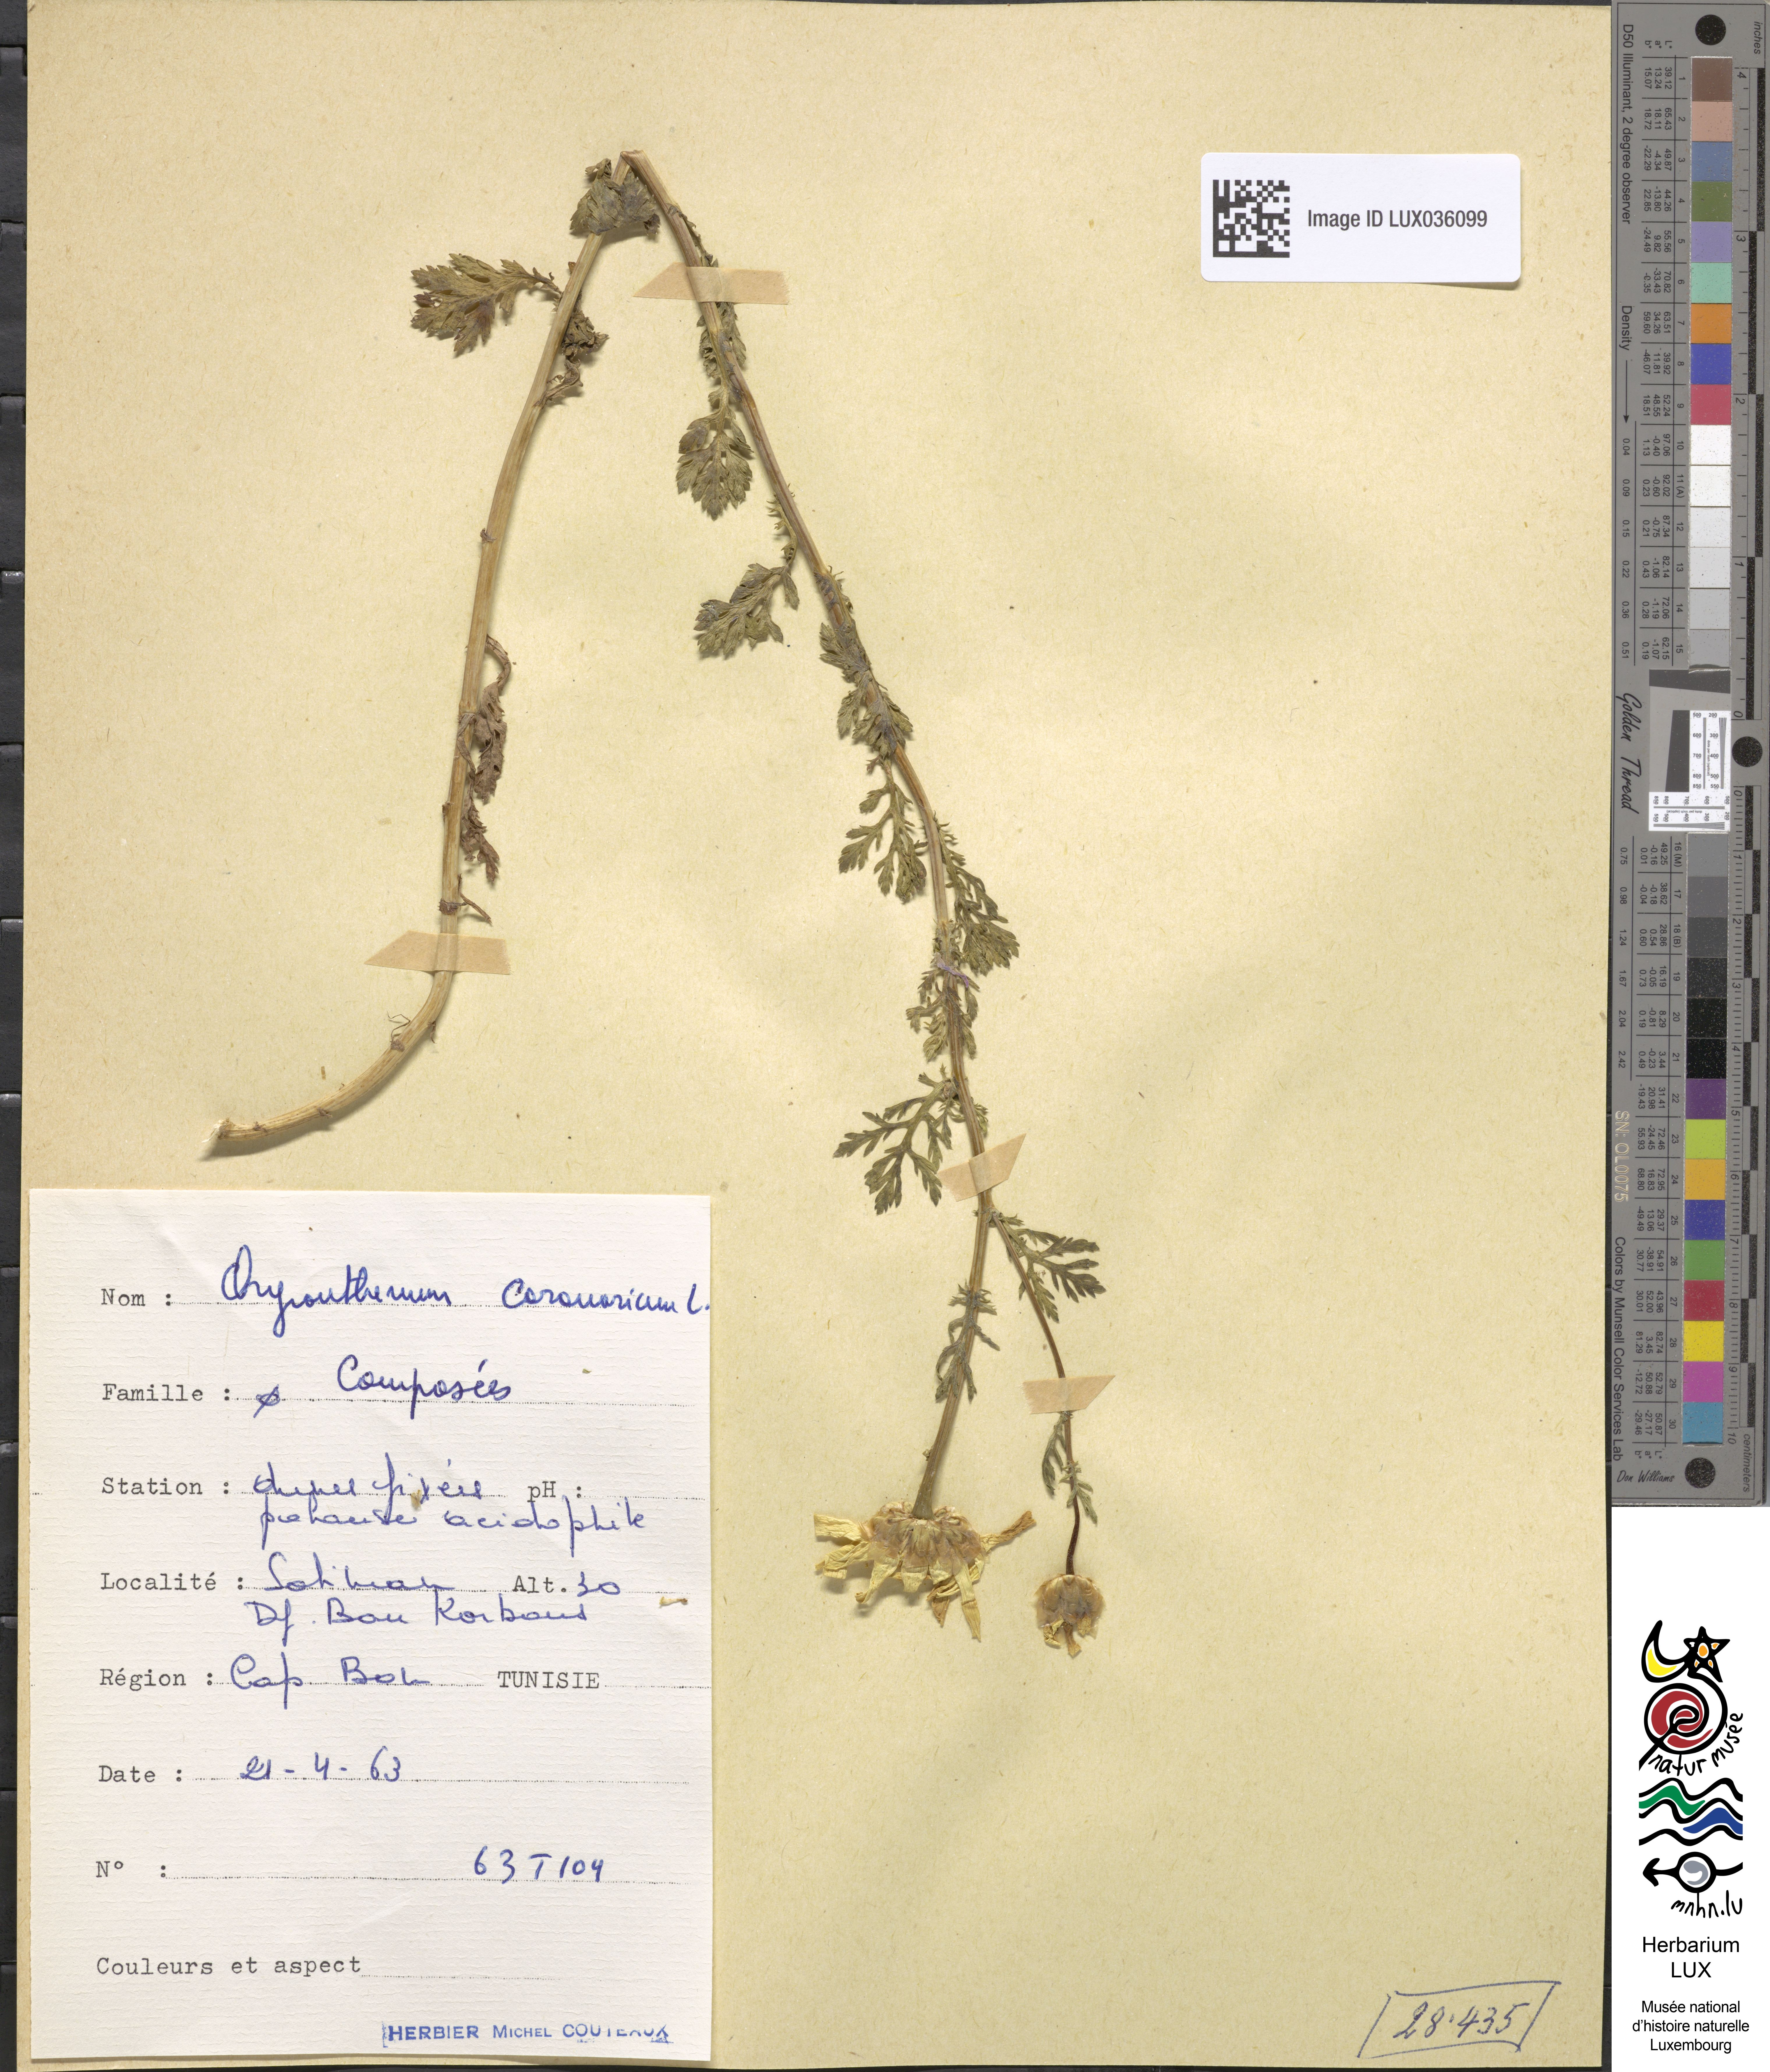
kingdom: Plantae
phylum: Tracheophyta
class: Magnoliopsida
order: Asterales
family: Asteraceae
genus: Glebionis
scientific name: Glebionis coronaria
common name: Crowndaisy
